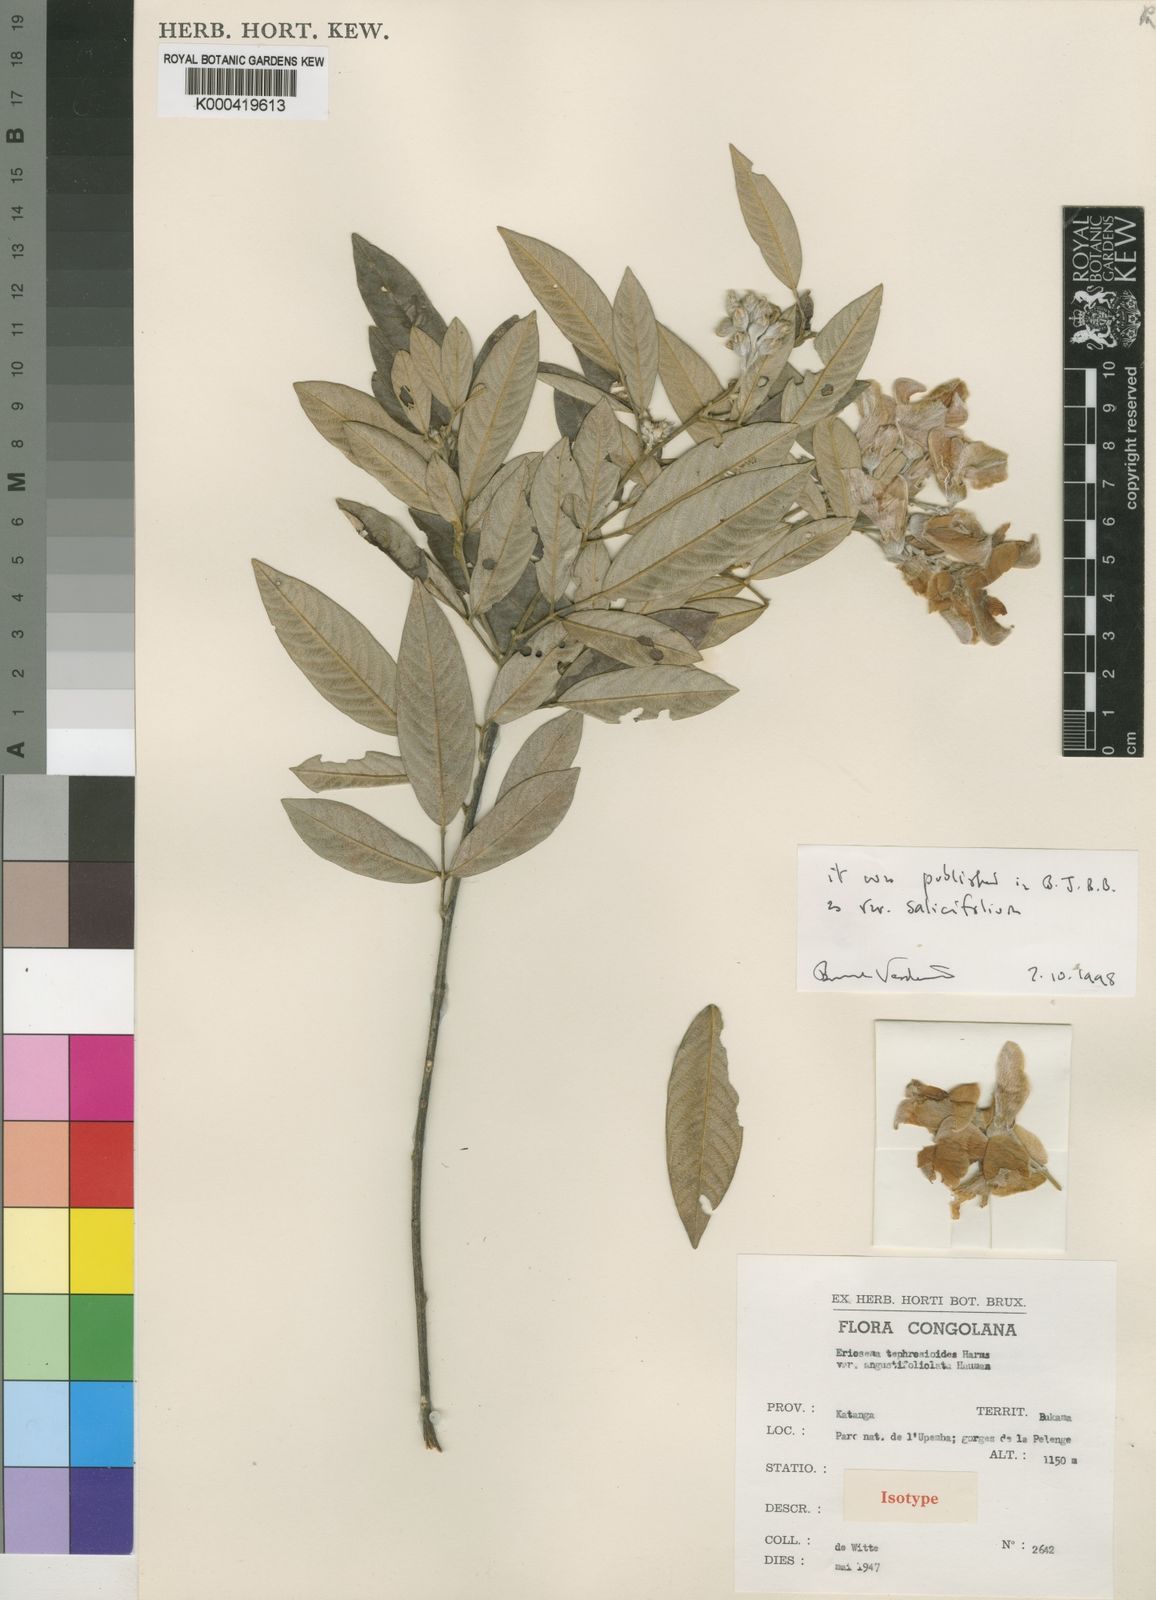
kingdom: Plantae
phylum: Tracheophyta
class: Magnoliopsida
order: Fabales
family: Fabaceae
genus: Eriosema
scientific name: Eriosema tephrosioides
